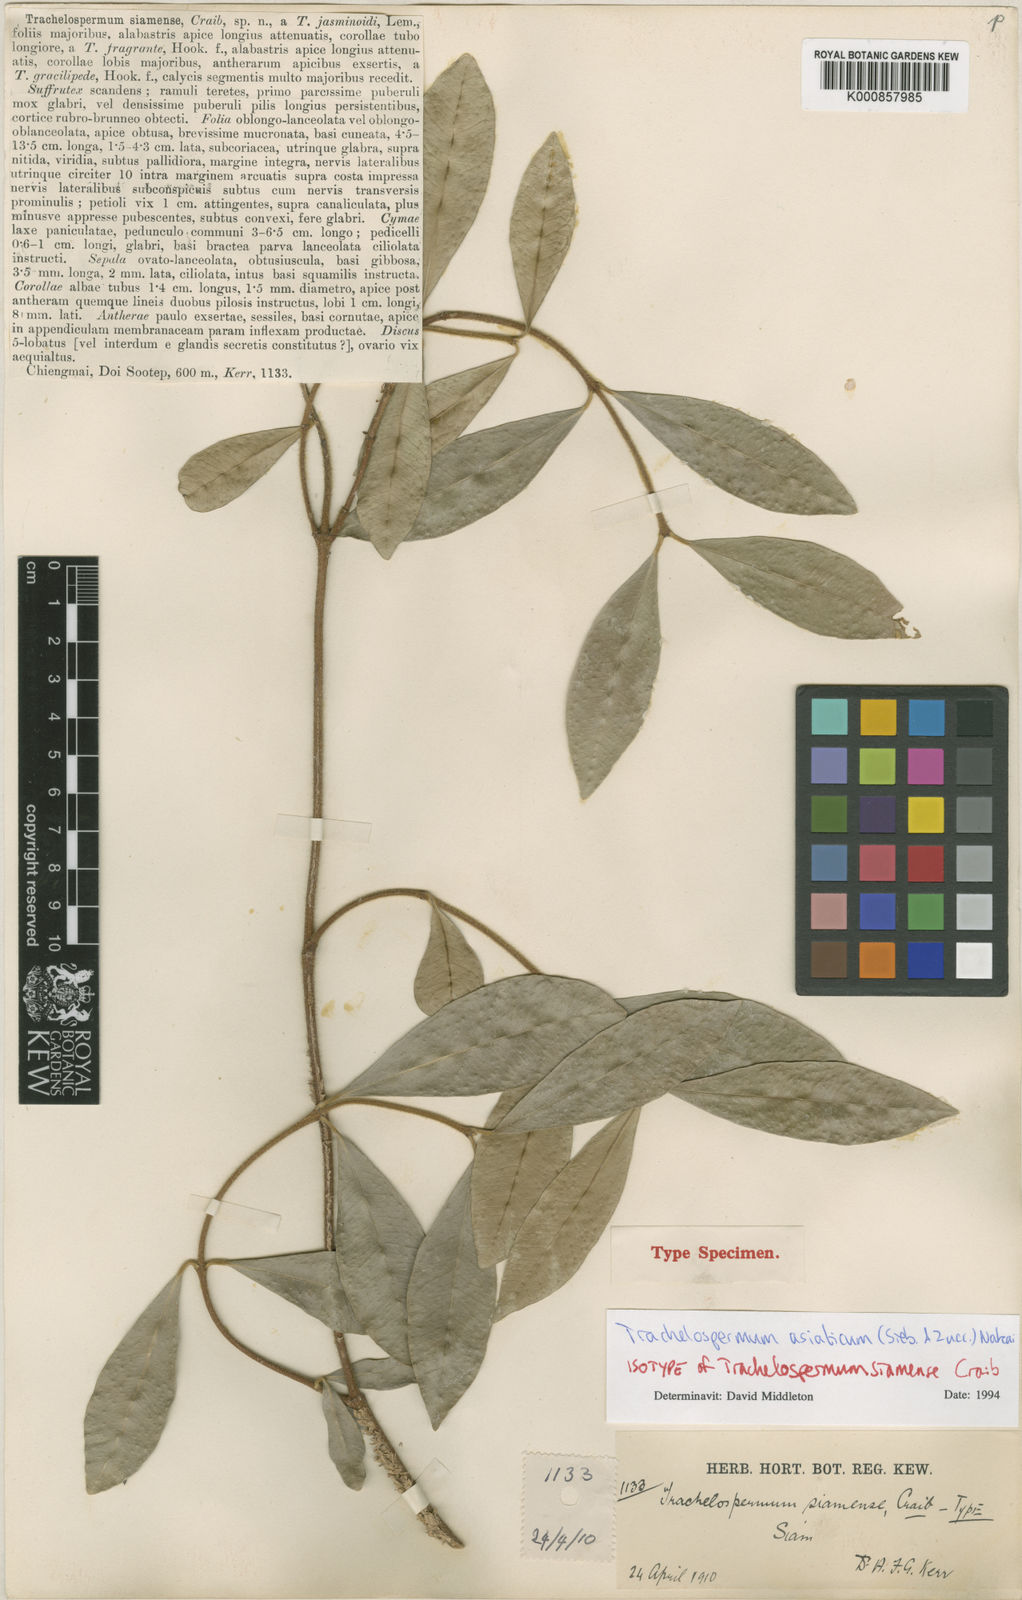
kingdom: Plantae
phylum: Tracheophyta
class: Magnoliopsida
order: Gentianales
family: Apocynaceae
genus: Trachelospermum
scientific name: Trachelospermum asiaticum
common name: Asiatic jasmine
